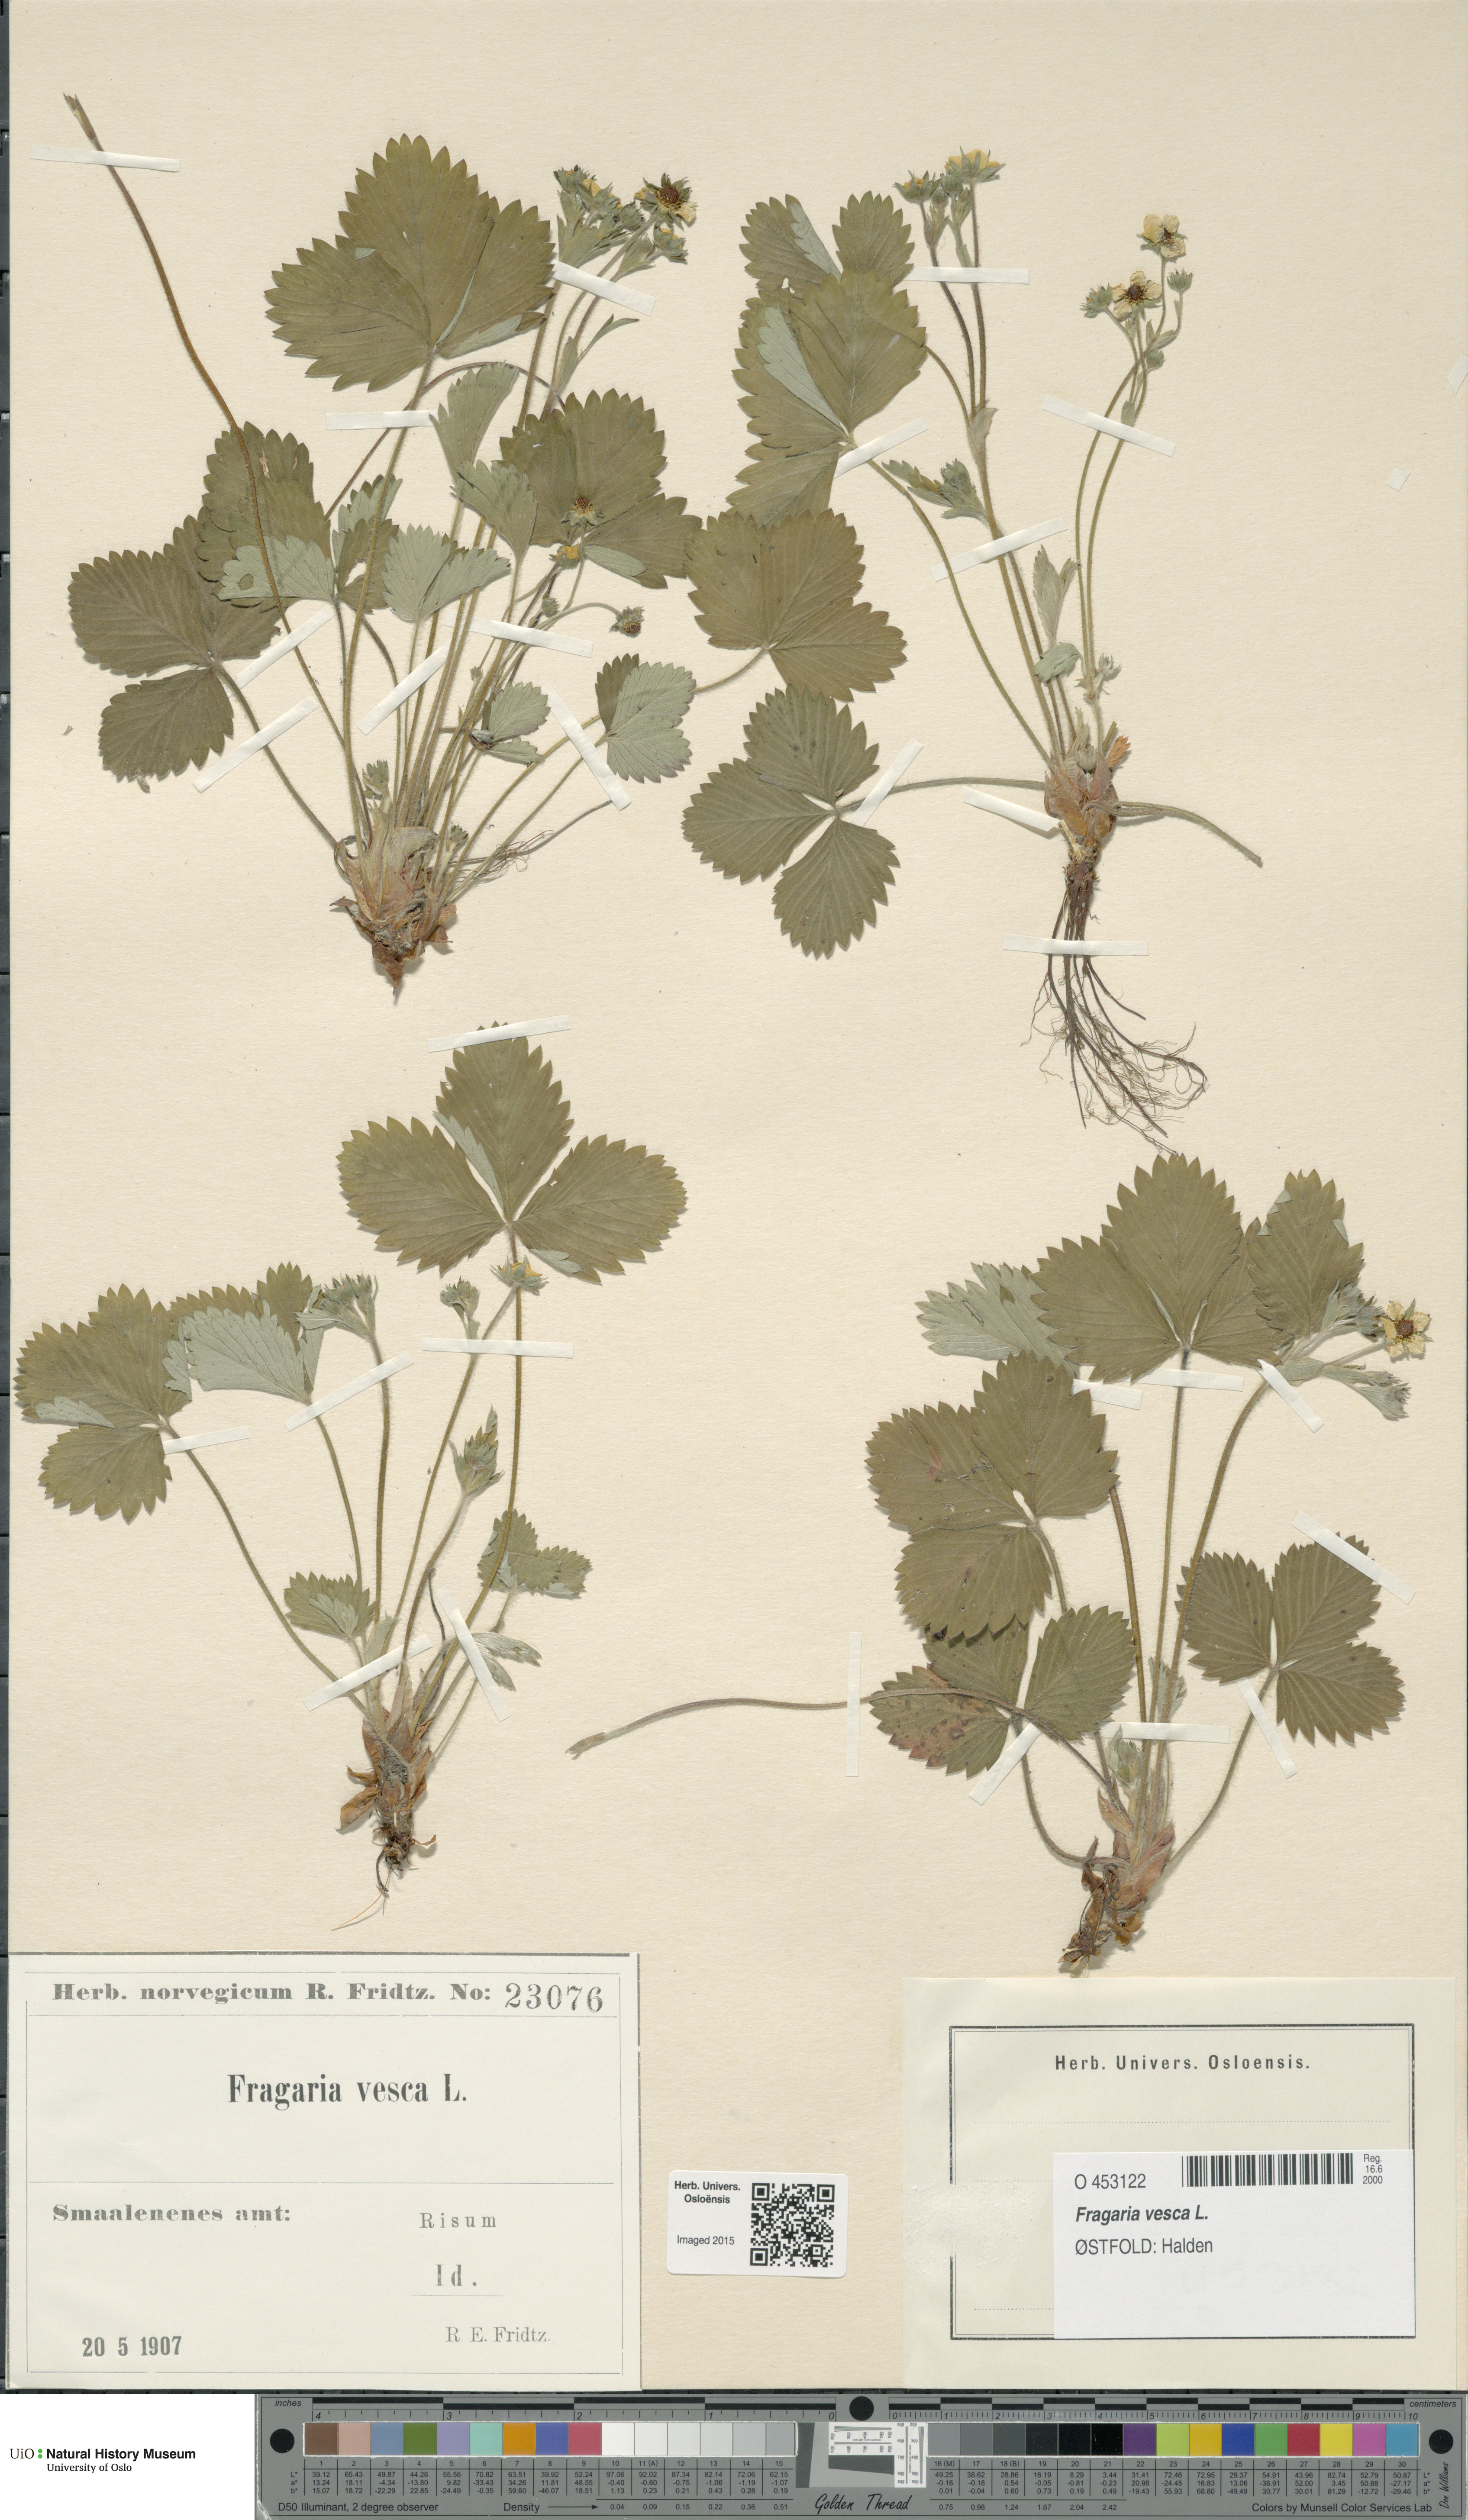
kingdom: Plantae
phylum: Tracheophyta
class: Magnoliopsida
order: Rosales
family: Rosaceae
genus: Fragaria
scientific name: Fragaria vesca
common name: Wild strawberry
